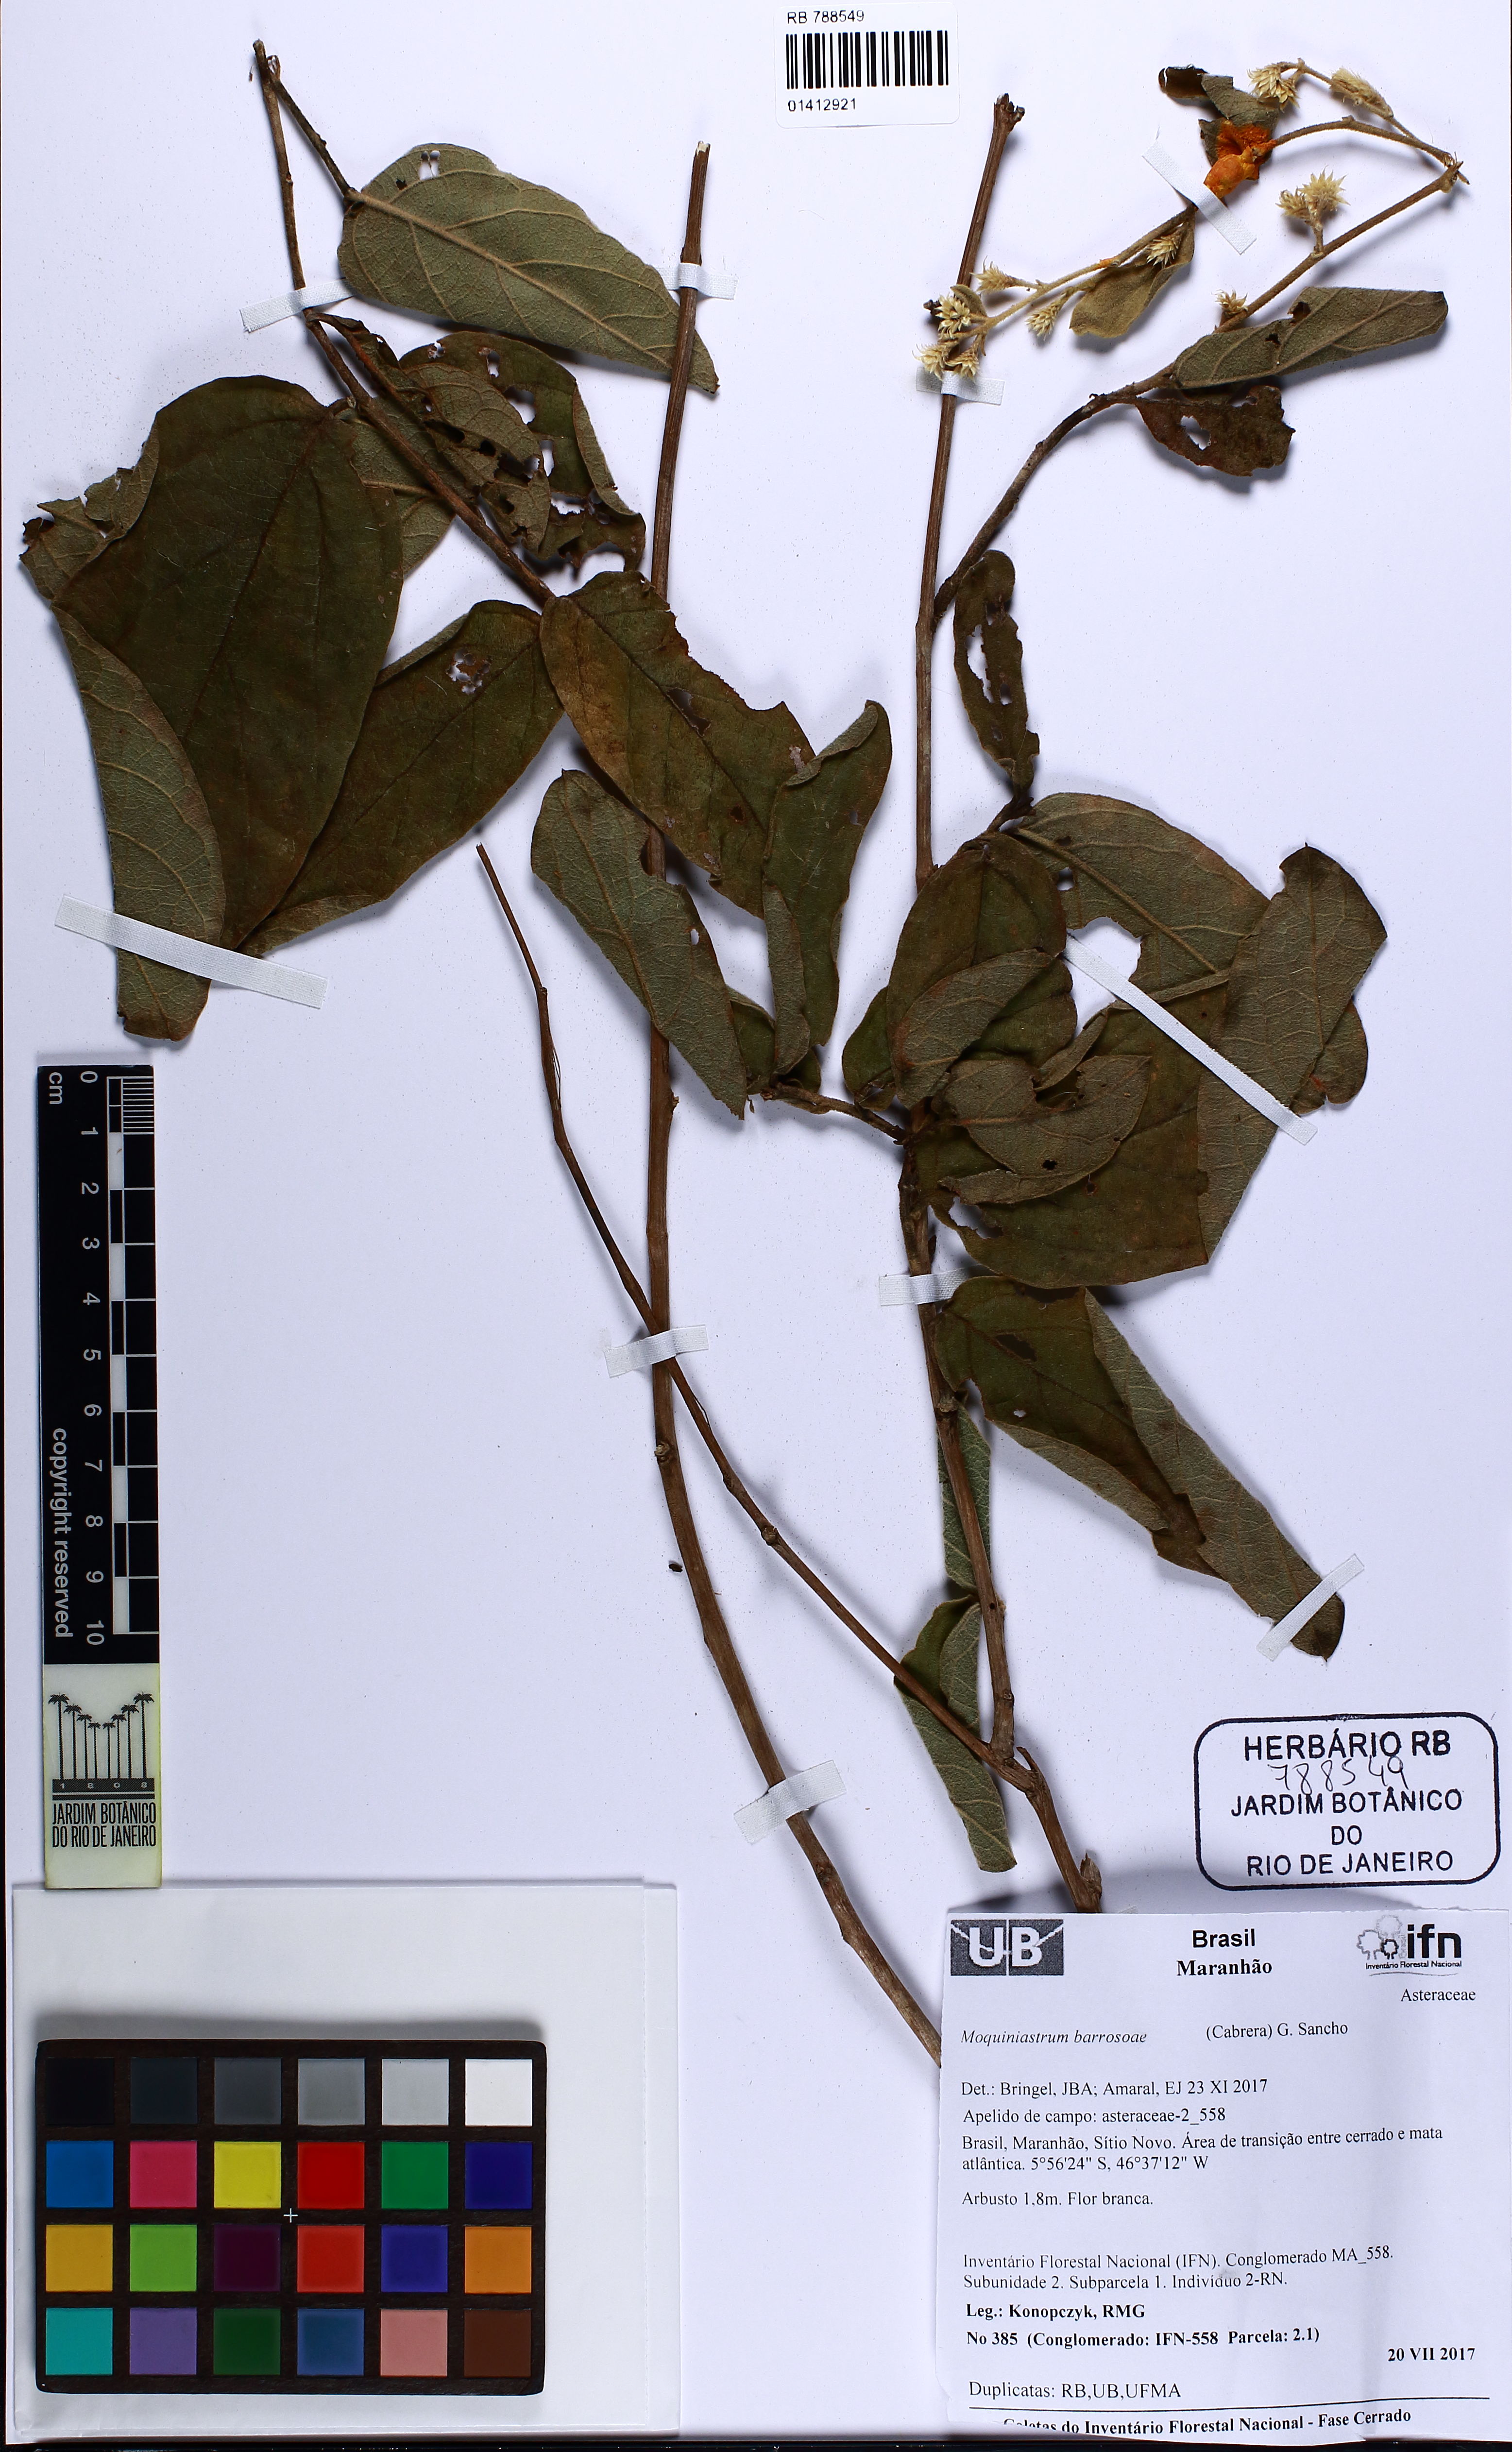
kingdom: Plantae
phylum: Tracheophyta
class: Magnoliopsida
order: Asterales
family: Asteraceae
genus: Moquiniastrum
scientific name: Moquiniastrum barrosoae
